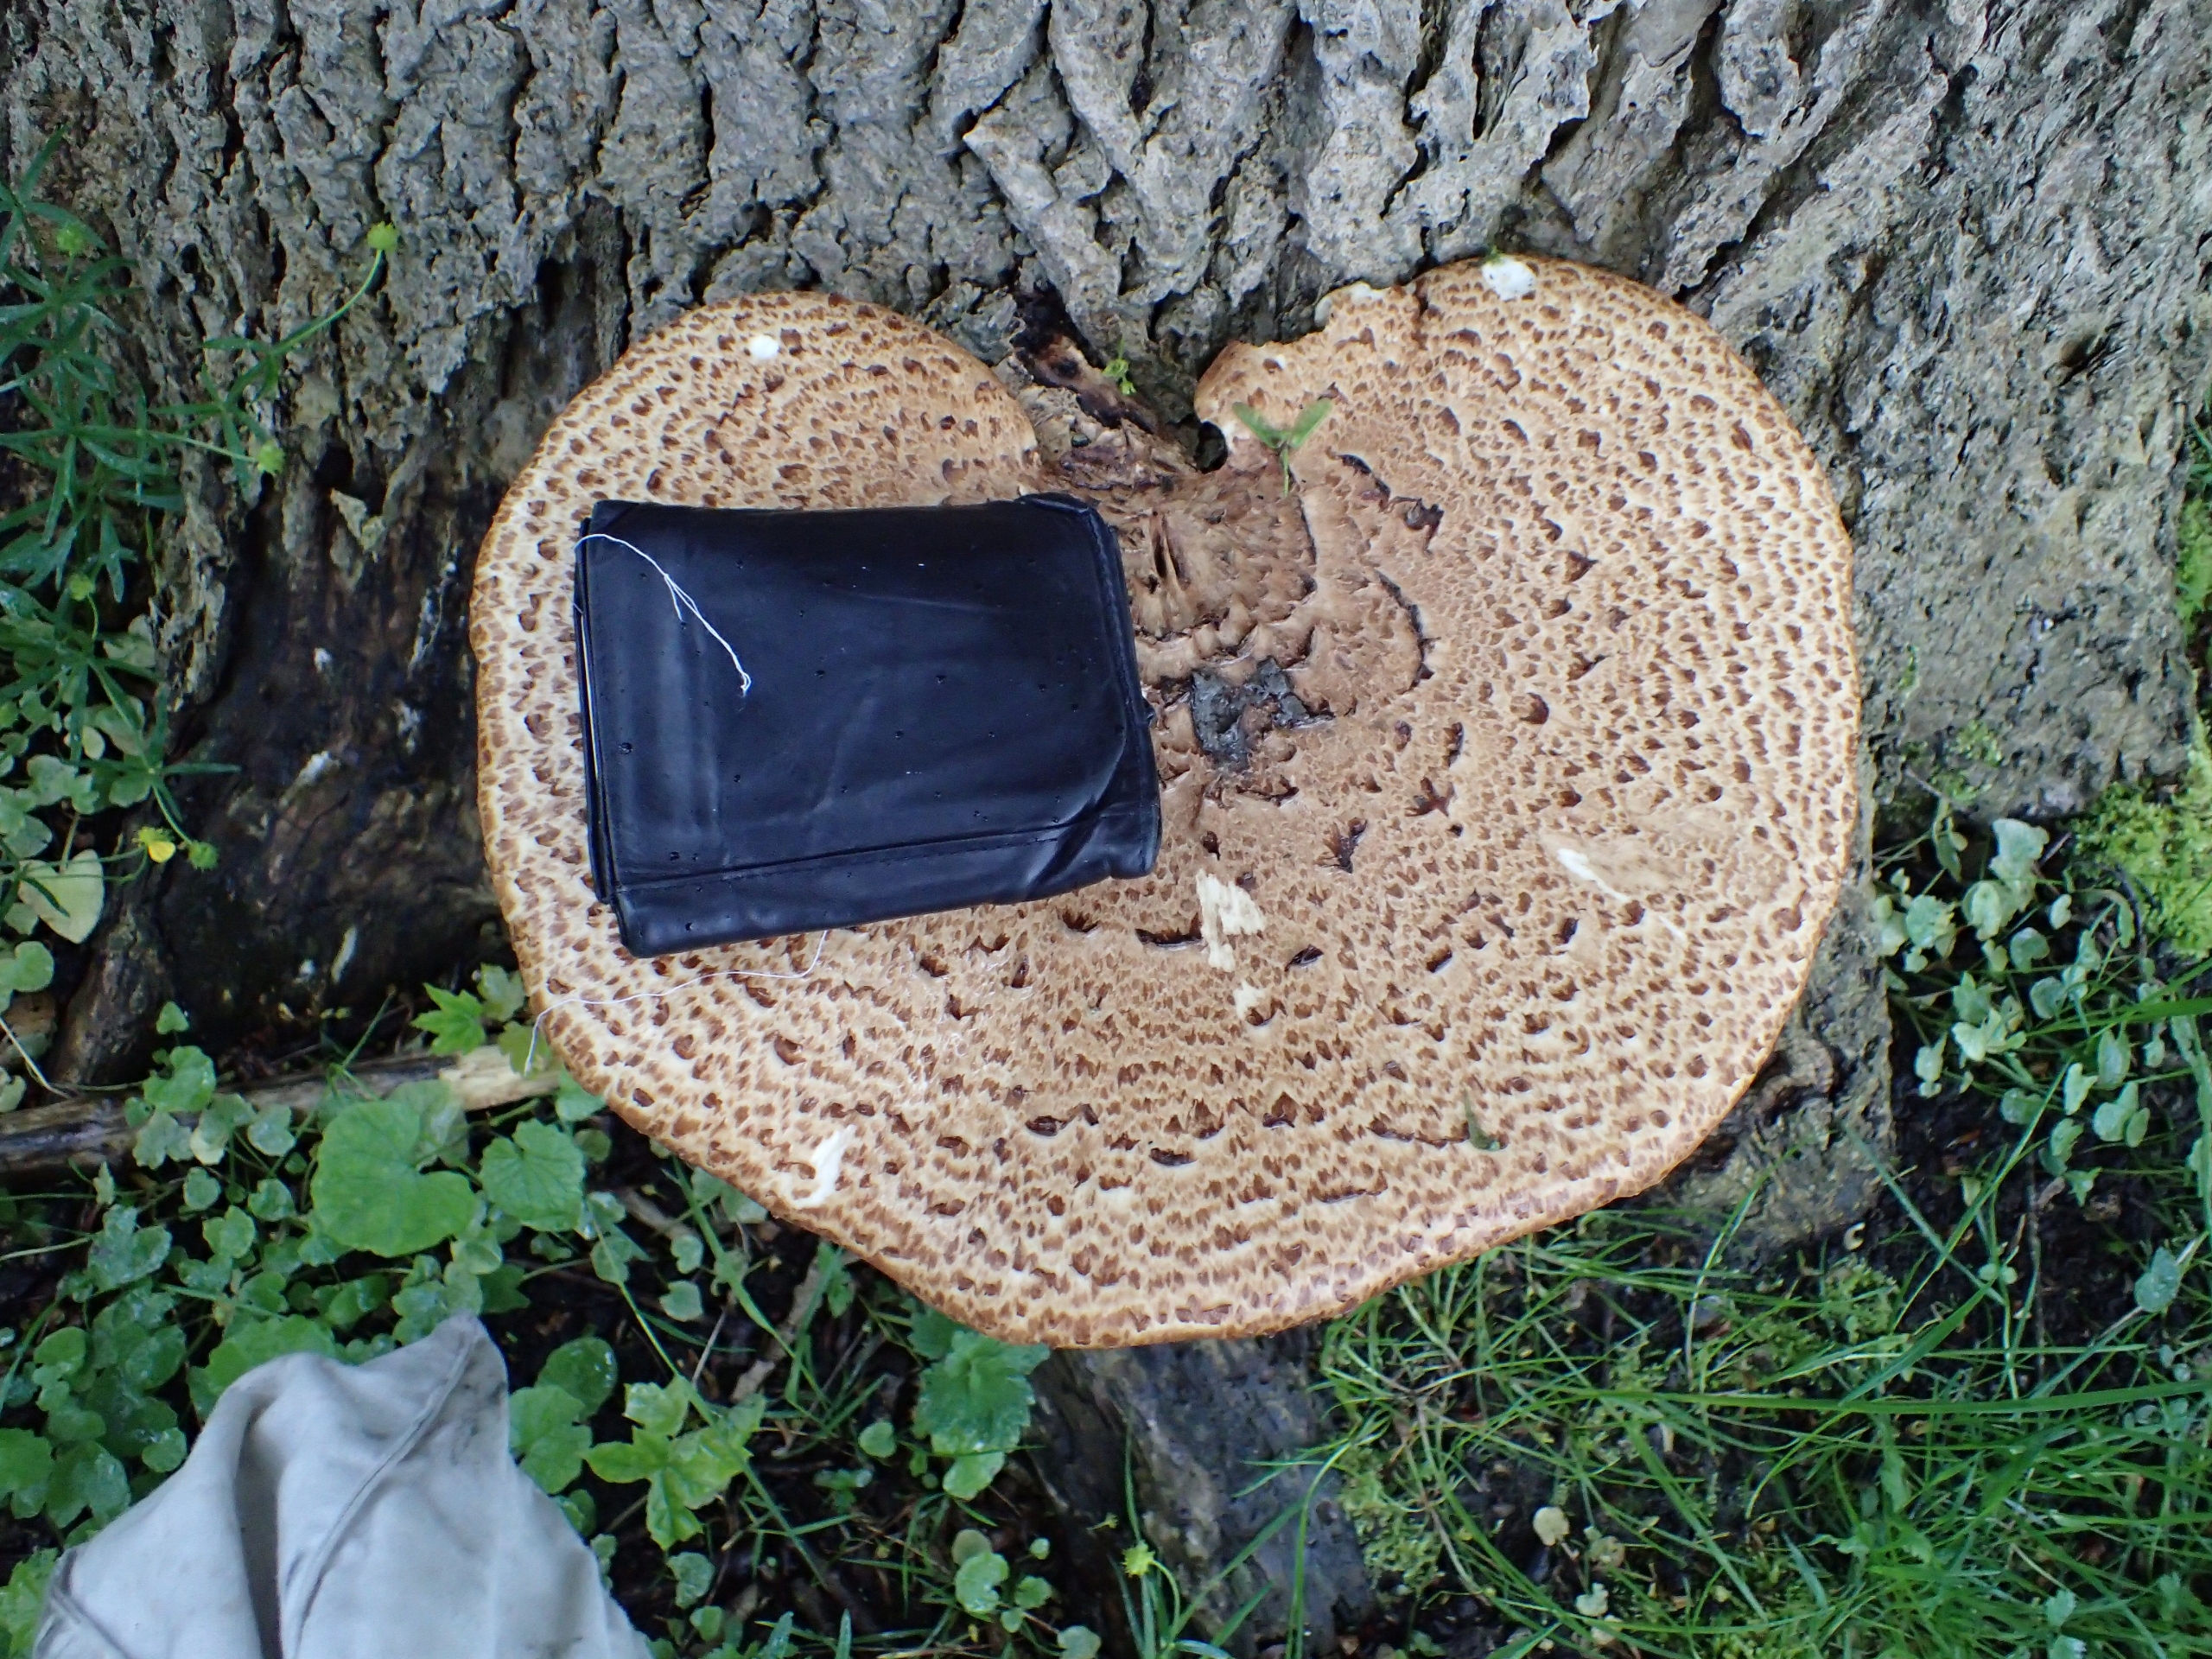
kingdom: Fungi
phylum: Basidiomycota
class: Agaricomycetes
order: Polyporales
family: Polyporaceae
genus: Cerioporus
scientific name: Cerioporus squamosus
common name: Skællet stilkporesvamp
